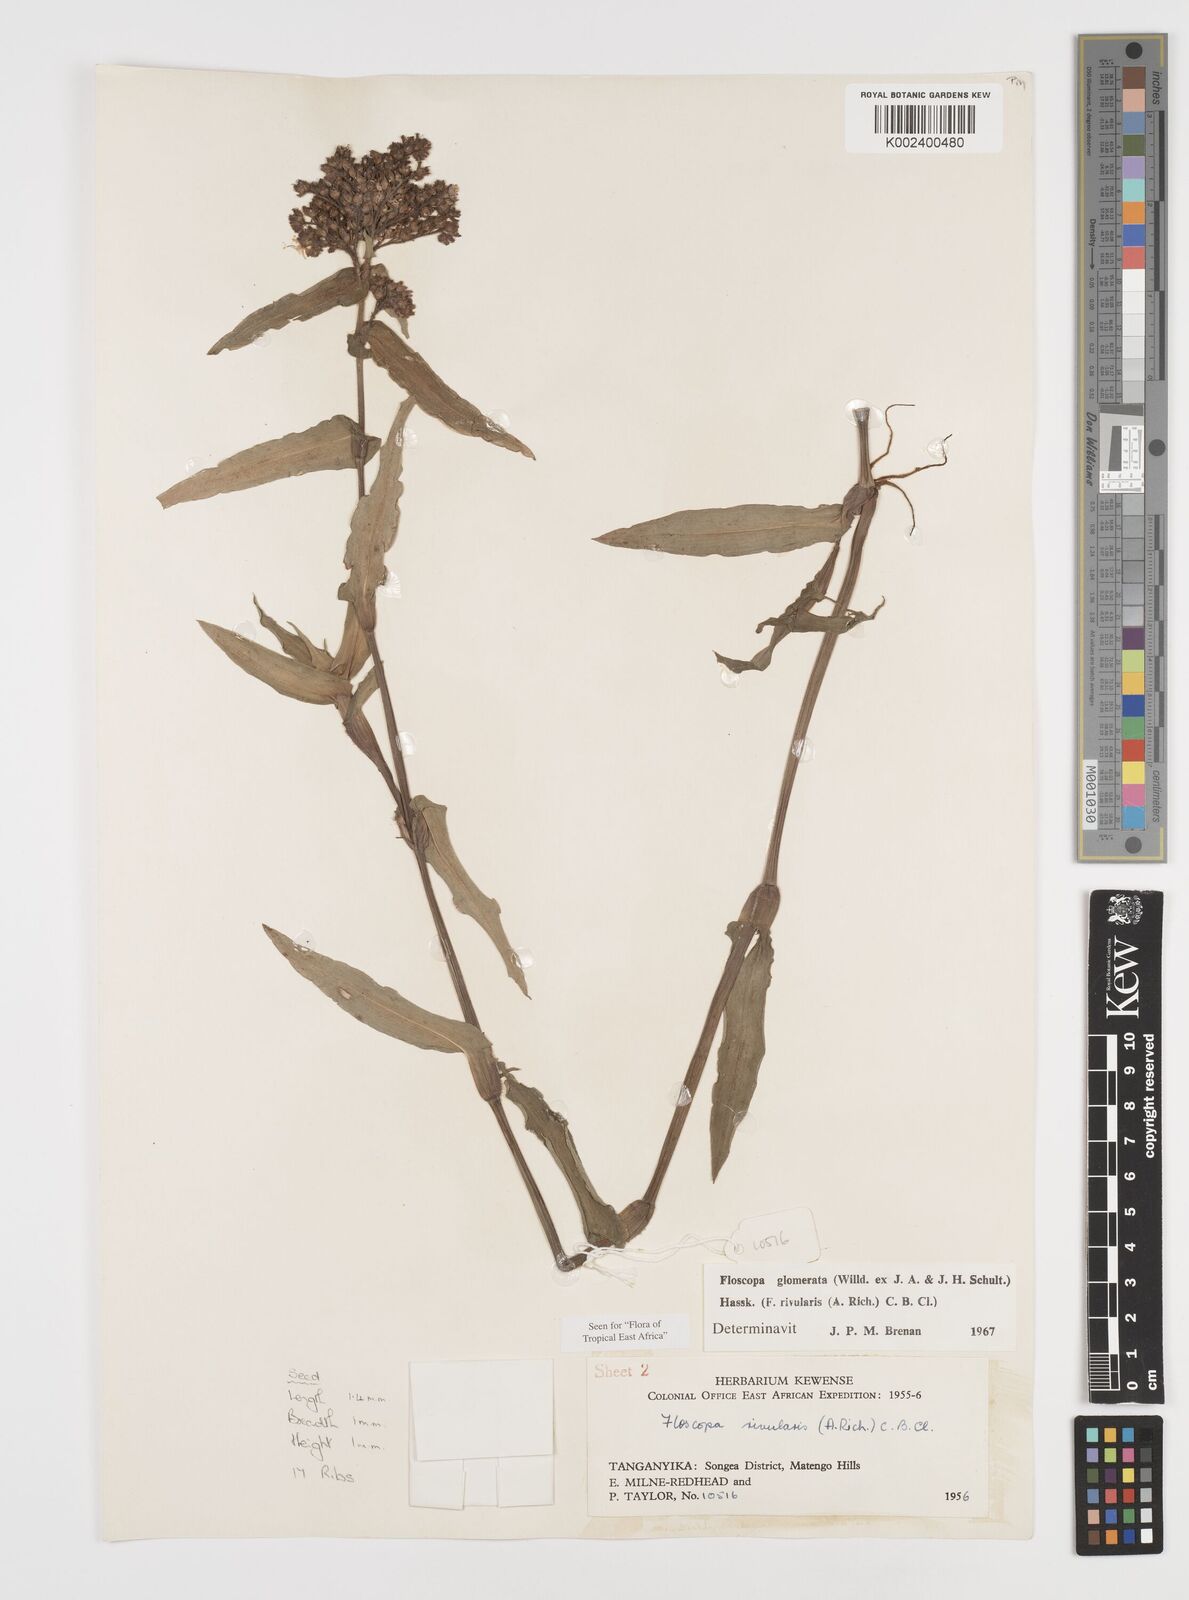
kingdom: Plantae
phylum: Tracheophyta
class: Liliopsida
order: Commelinales
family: Commelinaceae
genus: Floscopa
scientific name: Floscopa glomerata
